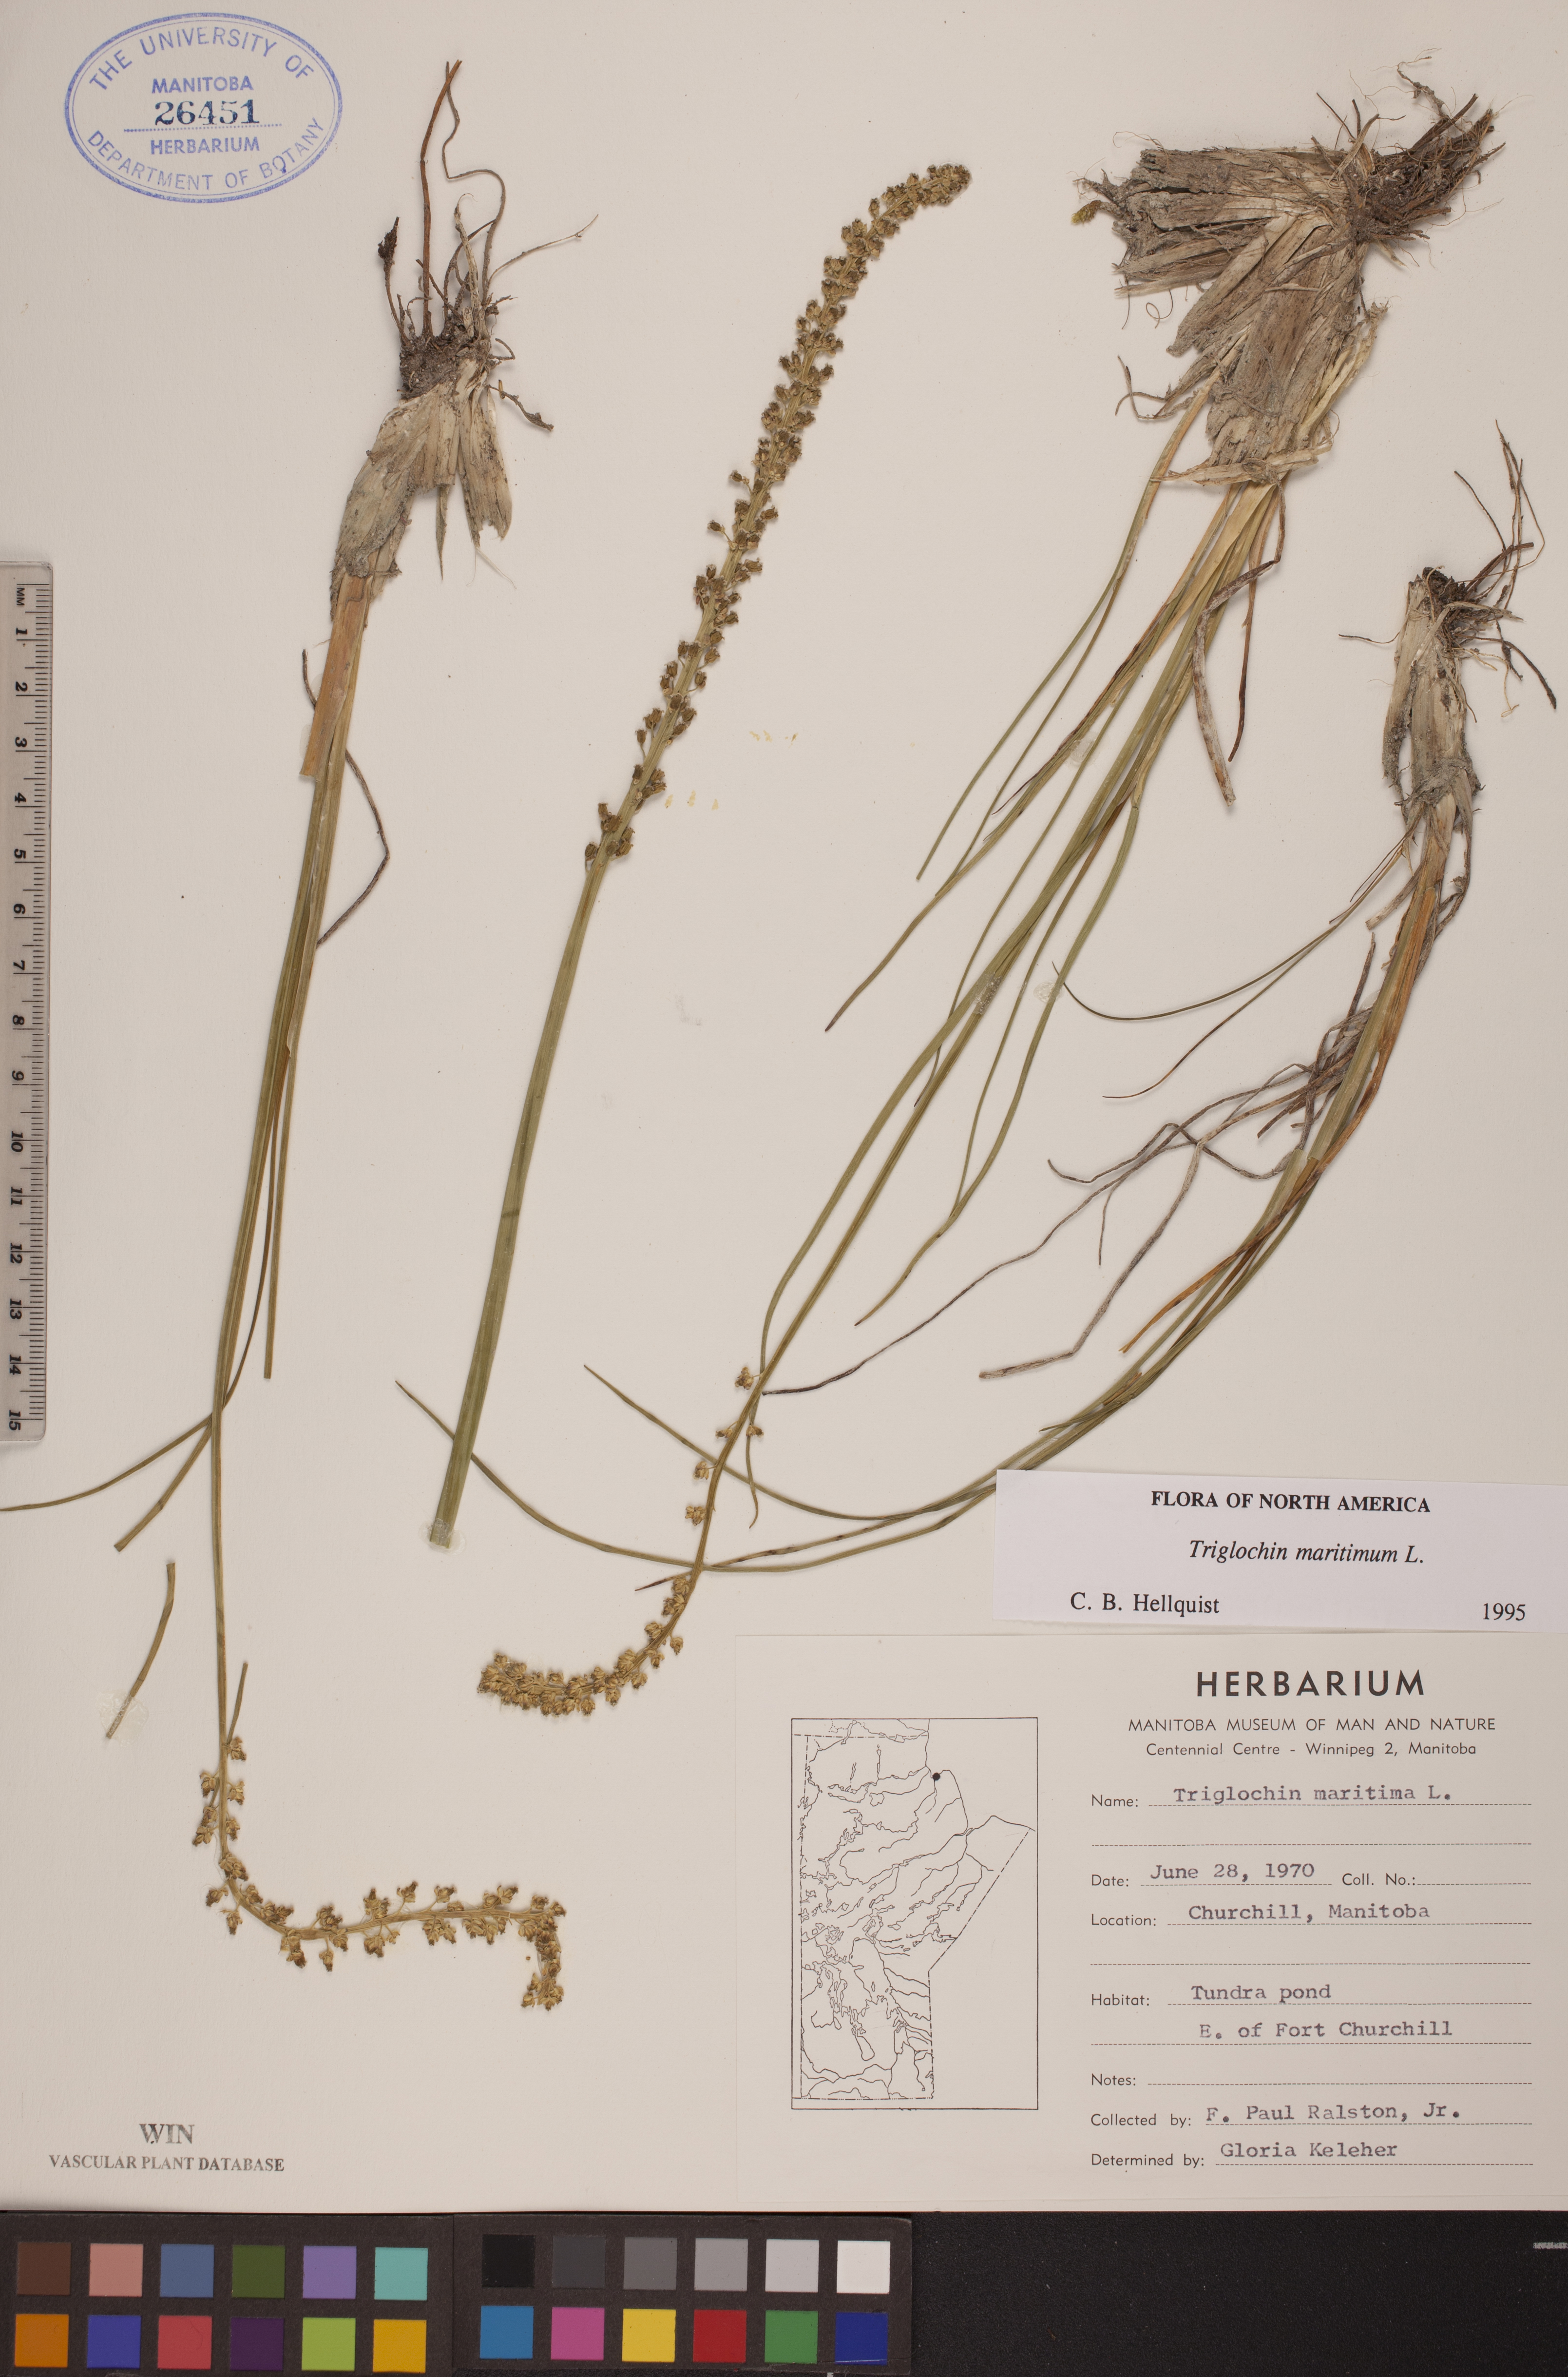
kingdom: Plantae
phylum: Tracheophyta
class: Liliopsida
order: Alismatales
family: Juncaginaceae
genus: Triglochin
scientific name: Triglochin maritima
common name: Sea arrowgrass
